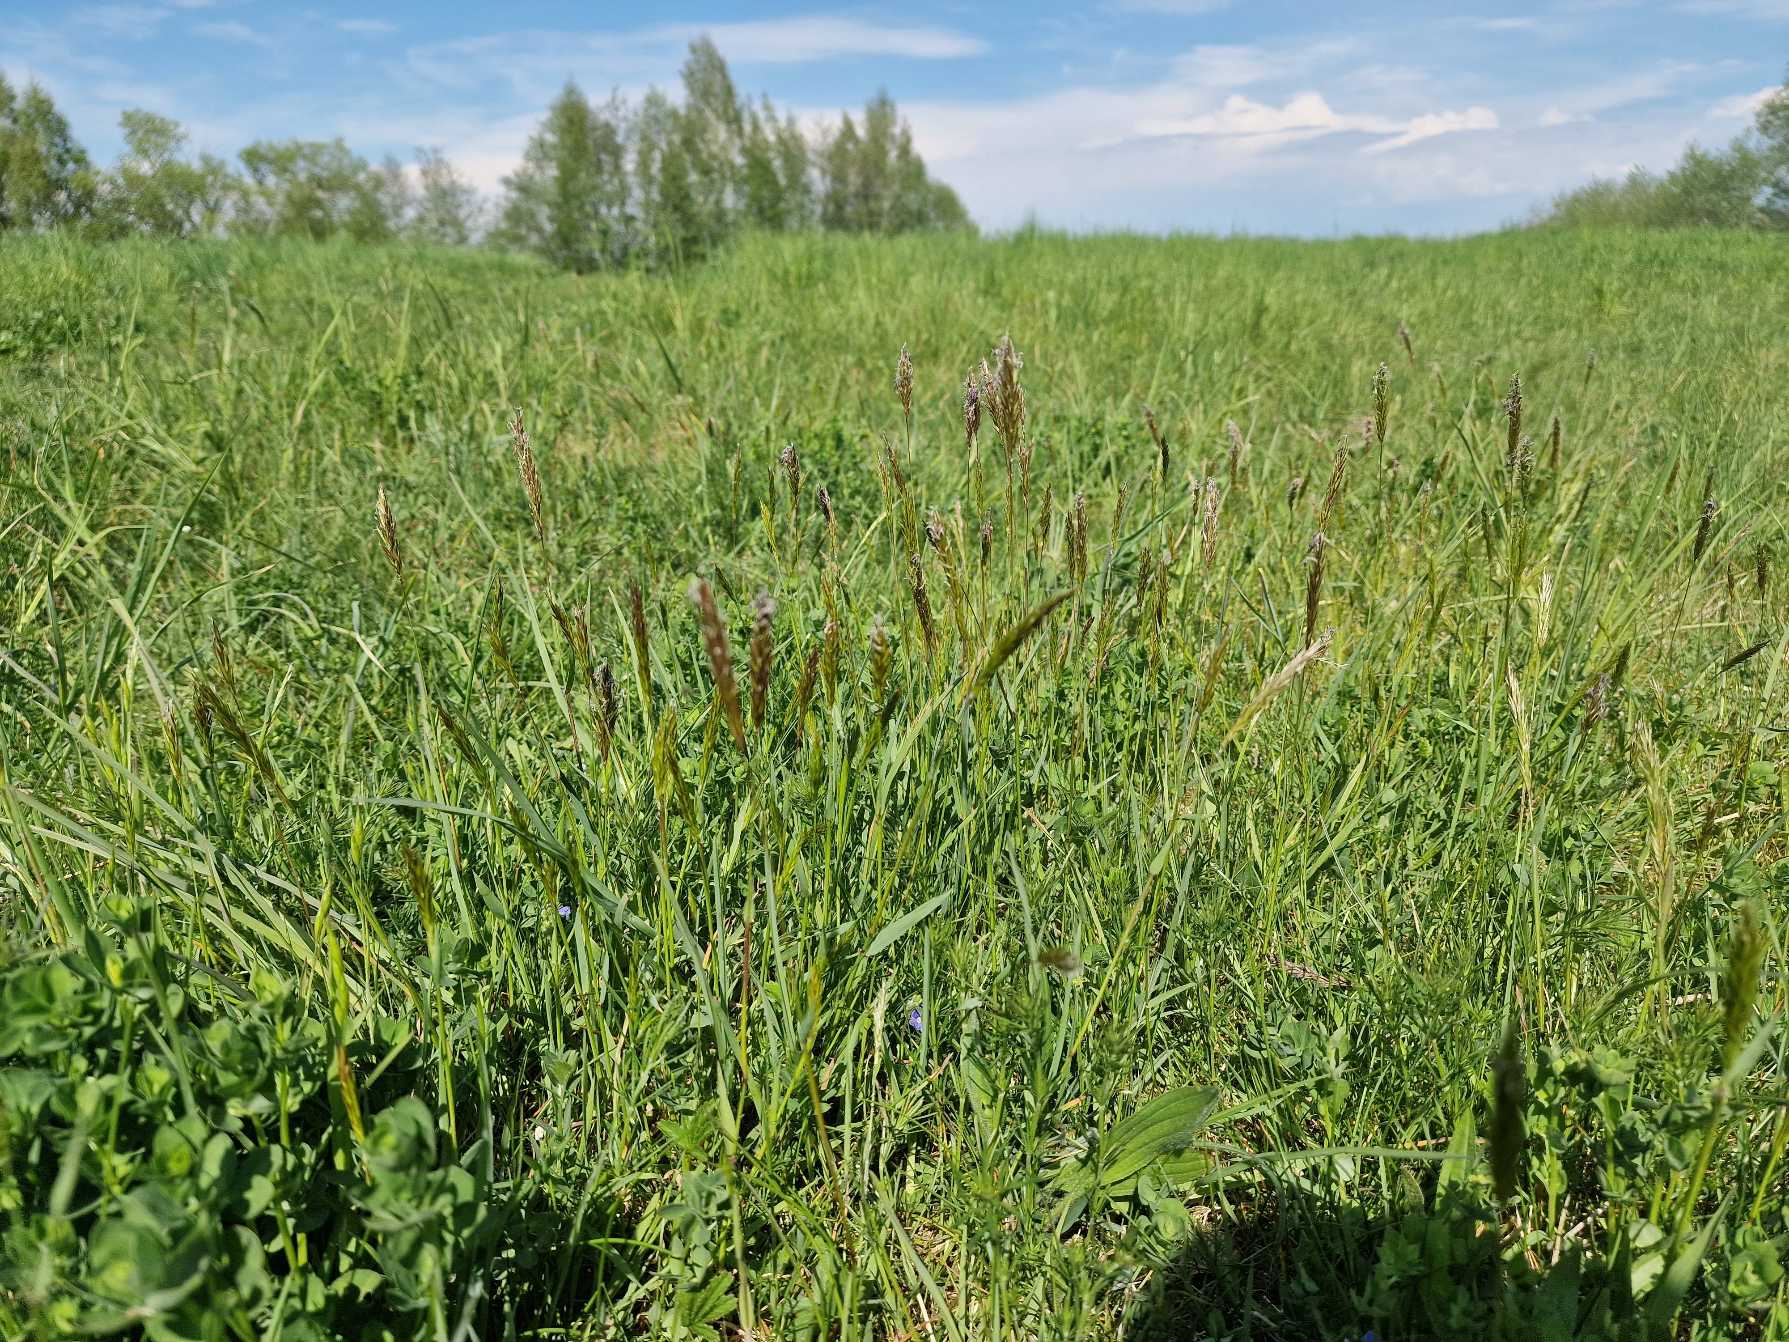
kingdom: Plantae
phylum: Tracheophyta
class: Liliopsida
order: Poales
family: Poaceae
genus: Anthoxanthum
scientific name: Anthoxanthum odoratum
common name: Vellugtende gulaks
